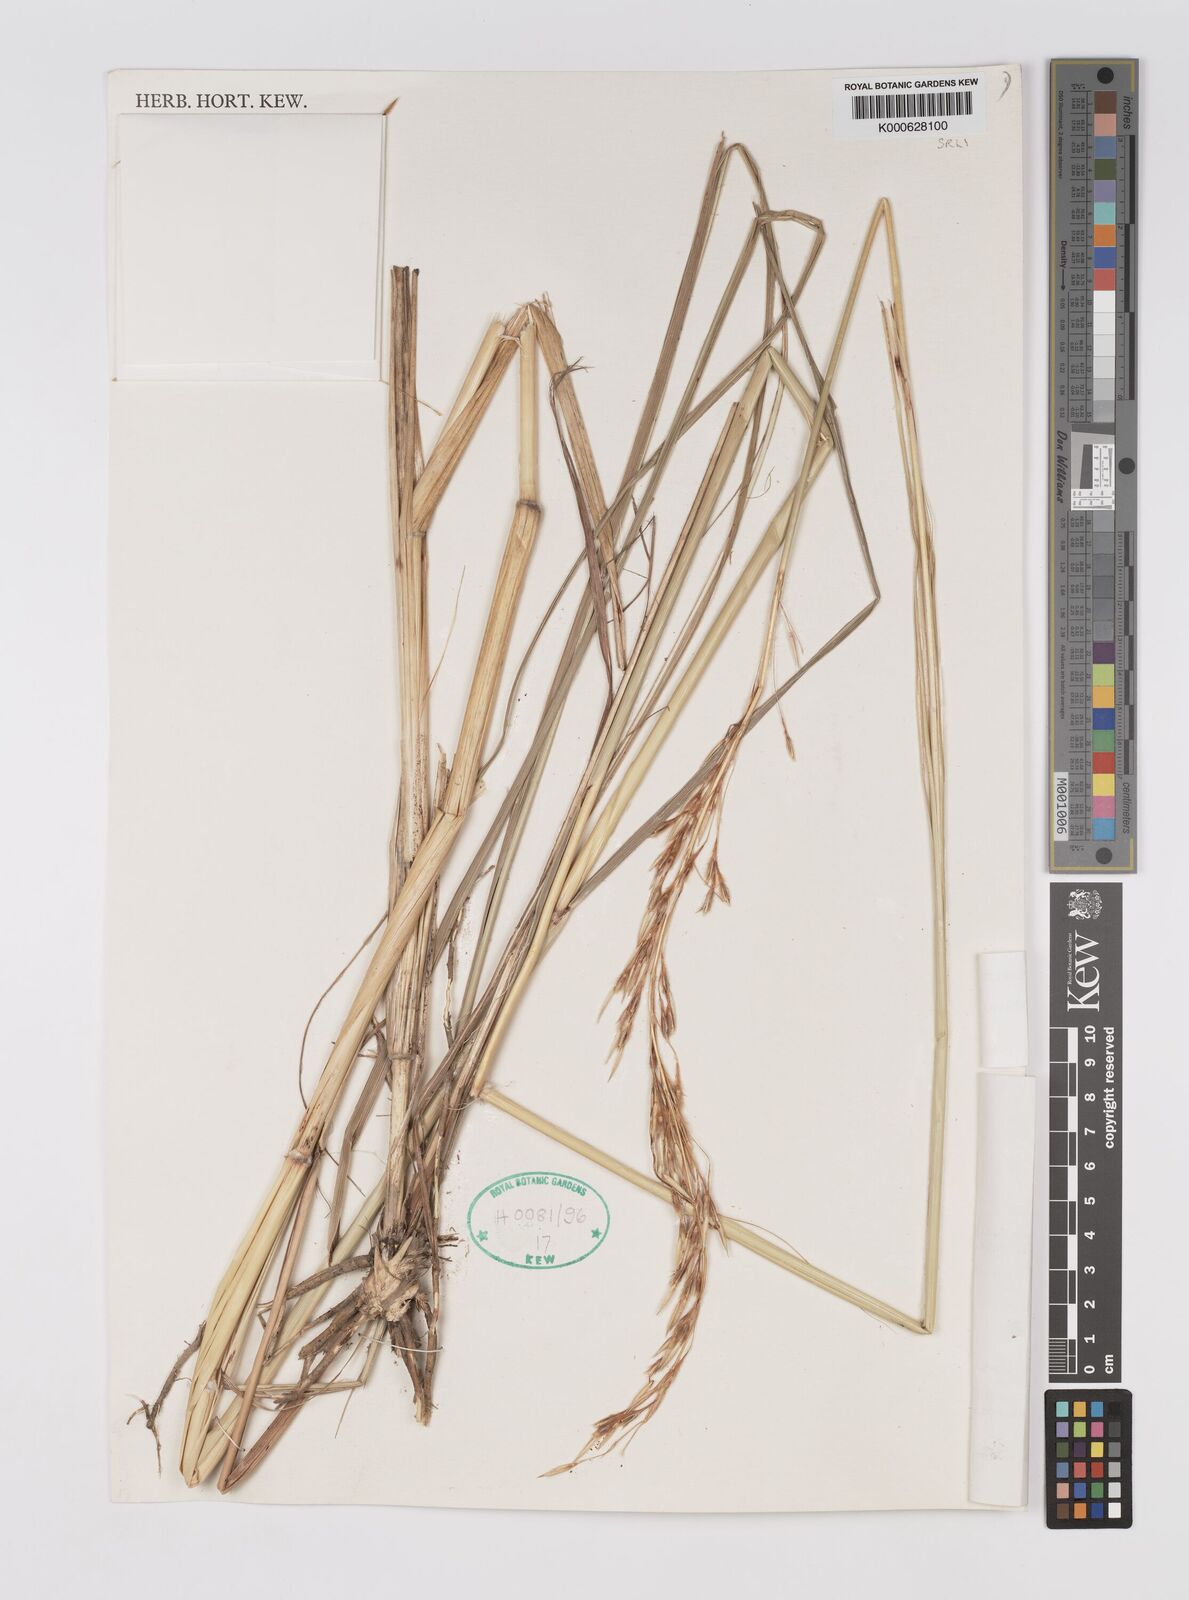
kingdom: Plantae
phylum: Tracheophyta
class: Liliopsida
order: Poales
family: Poaceae
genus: Sarga
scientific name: Sarga stipoidea
